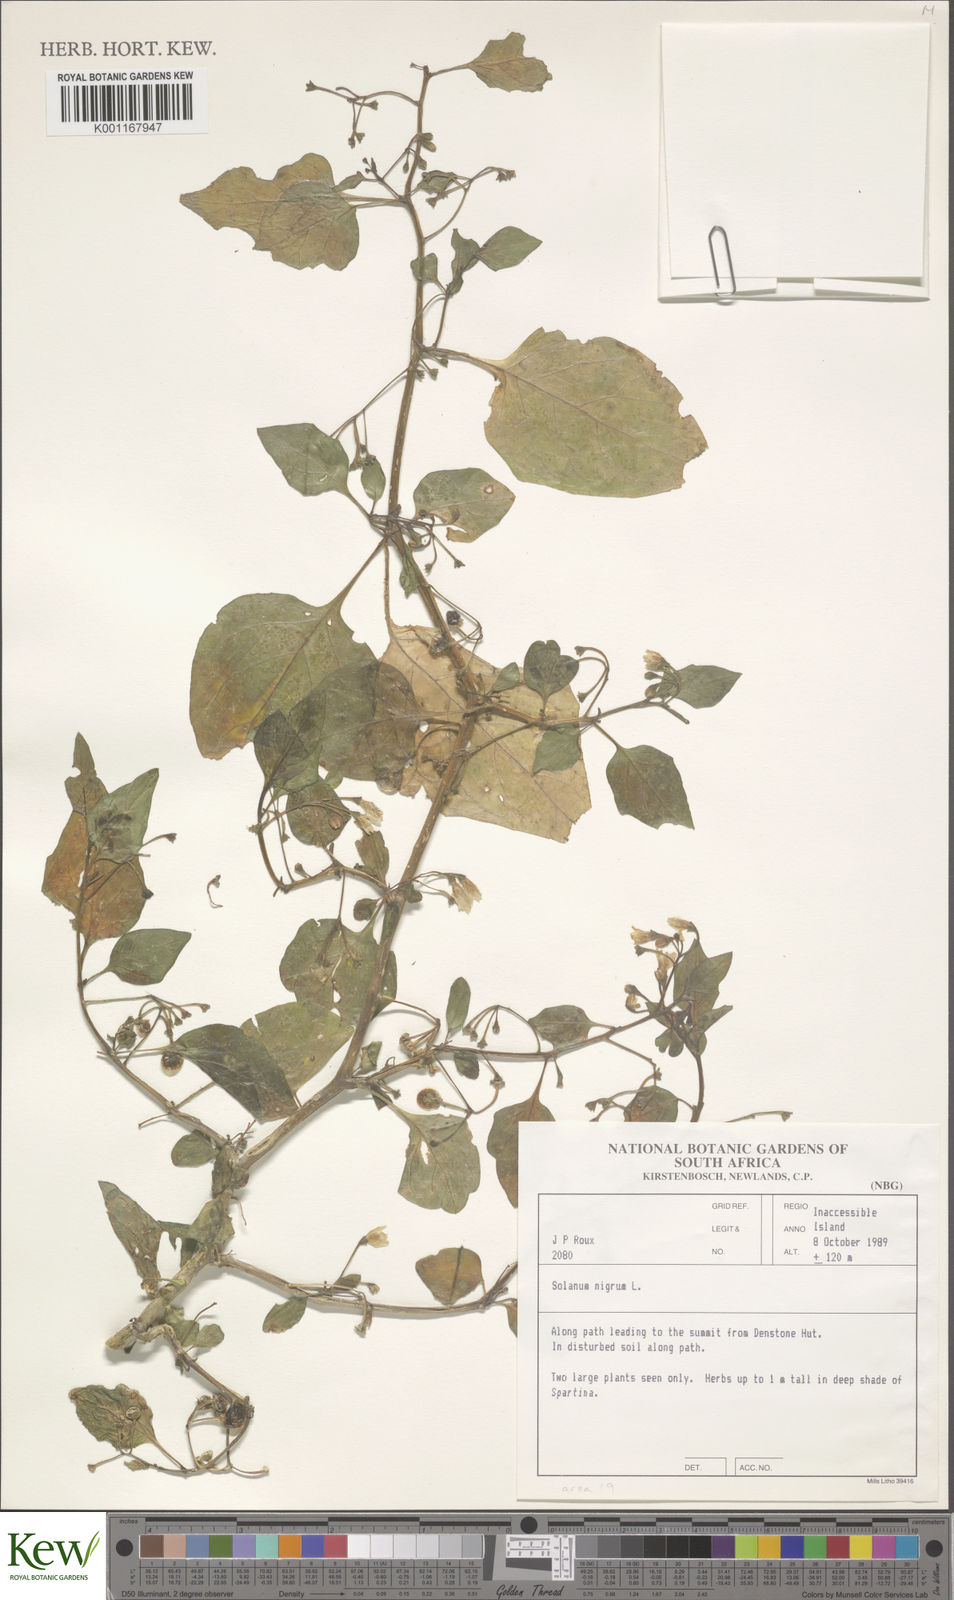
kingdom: Plantae
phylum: Tracheophyta
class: Magnoliopsida
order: Solanales
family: Solanaceae
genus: Solanum
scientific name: Solanum nigrum
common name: Black nightshade
